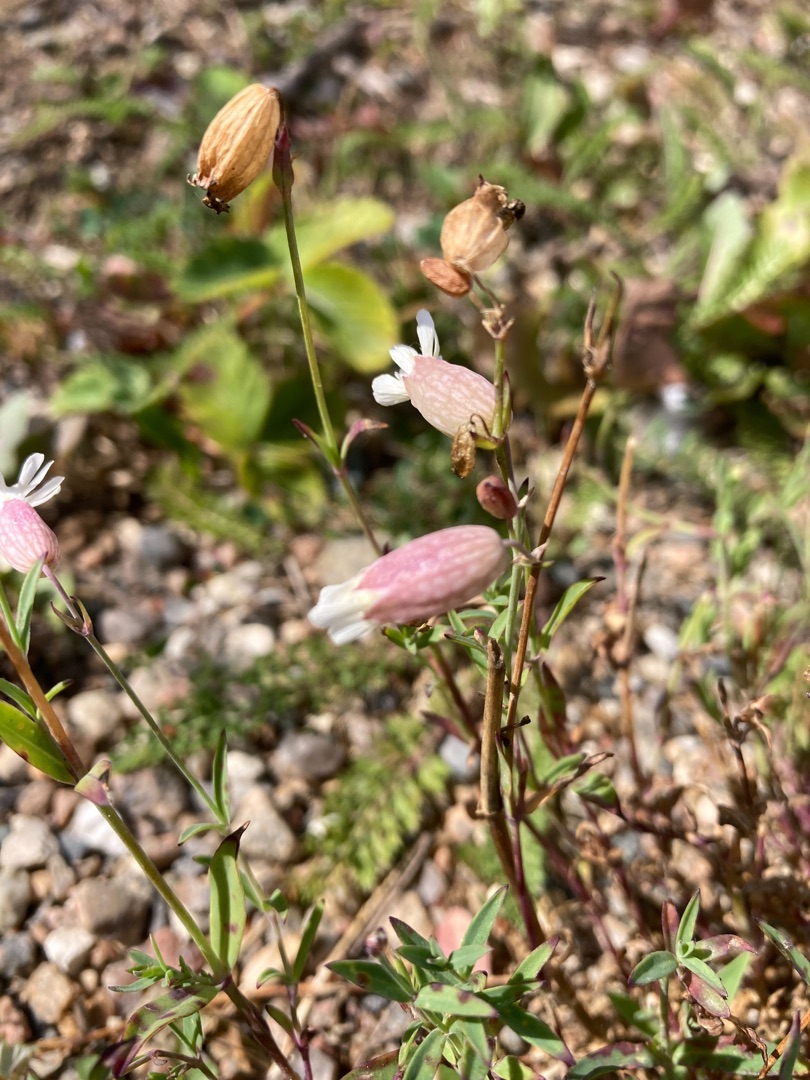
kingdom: Plantae
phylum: Tracheophyta
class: Magnoliopsida
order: Caryophyllales
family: Caryophyllaceae
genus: Silene
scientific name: Silene vulgaris
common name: Blæresmælde
